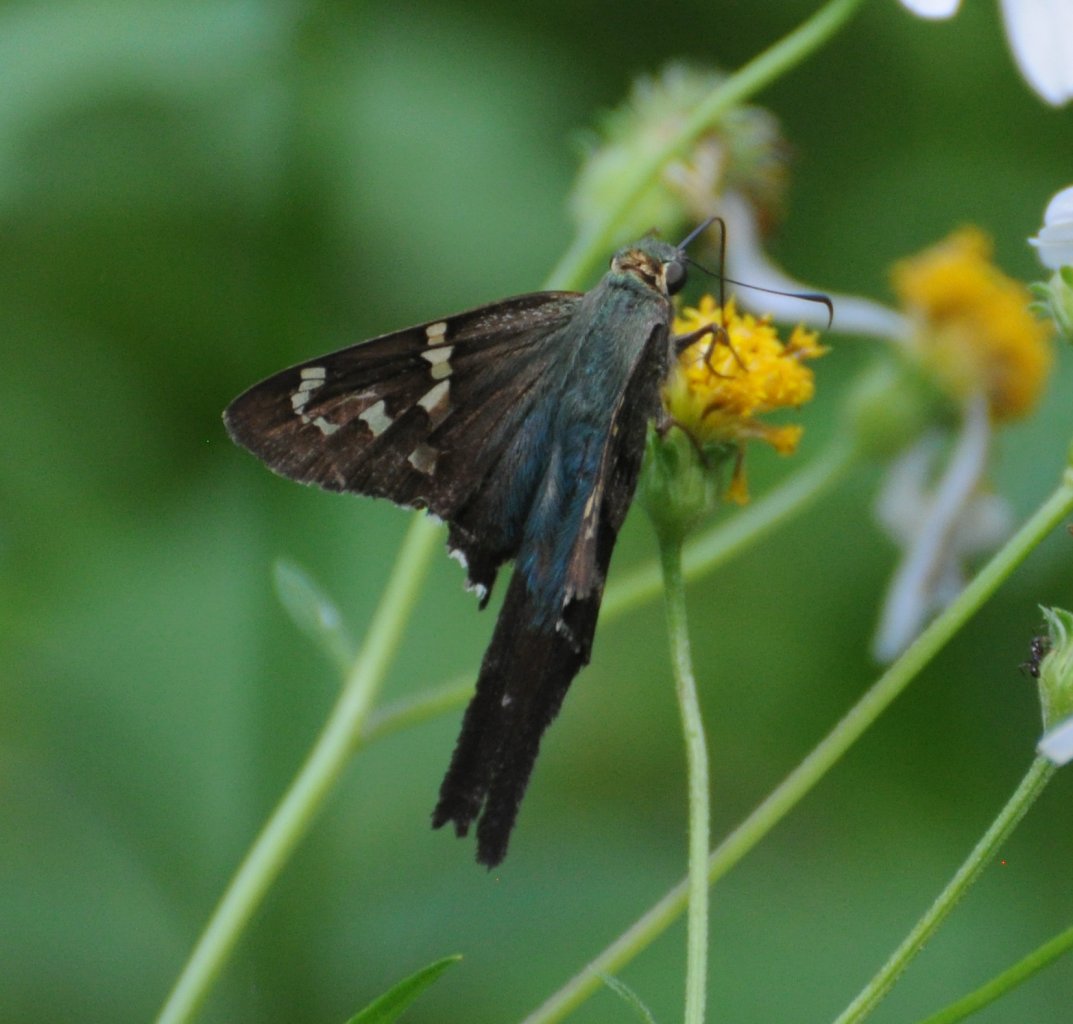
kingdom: Animalia
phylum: Arthropoda
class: Insecta
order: Lepidoptera
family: Hesperiidae
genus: Urbanus
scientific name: Urbanus proteus
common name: Long-tailed Skipper
